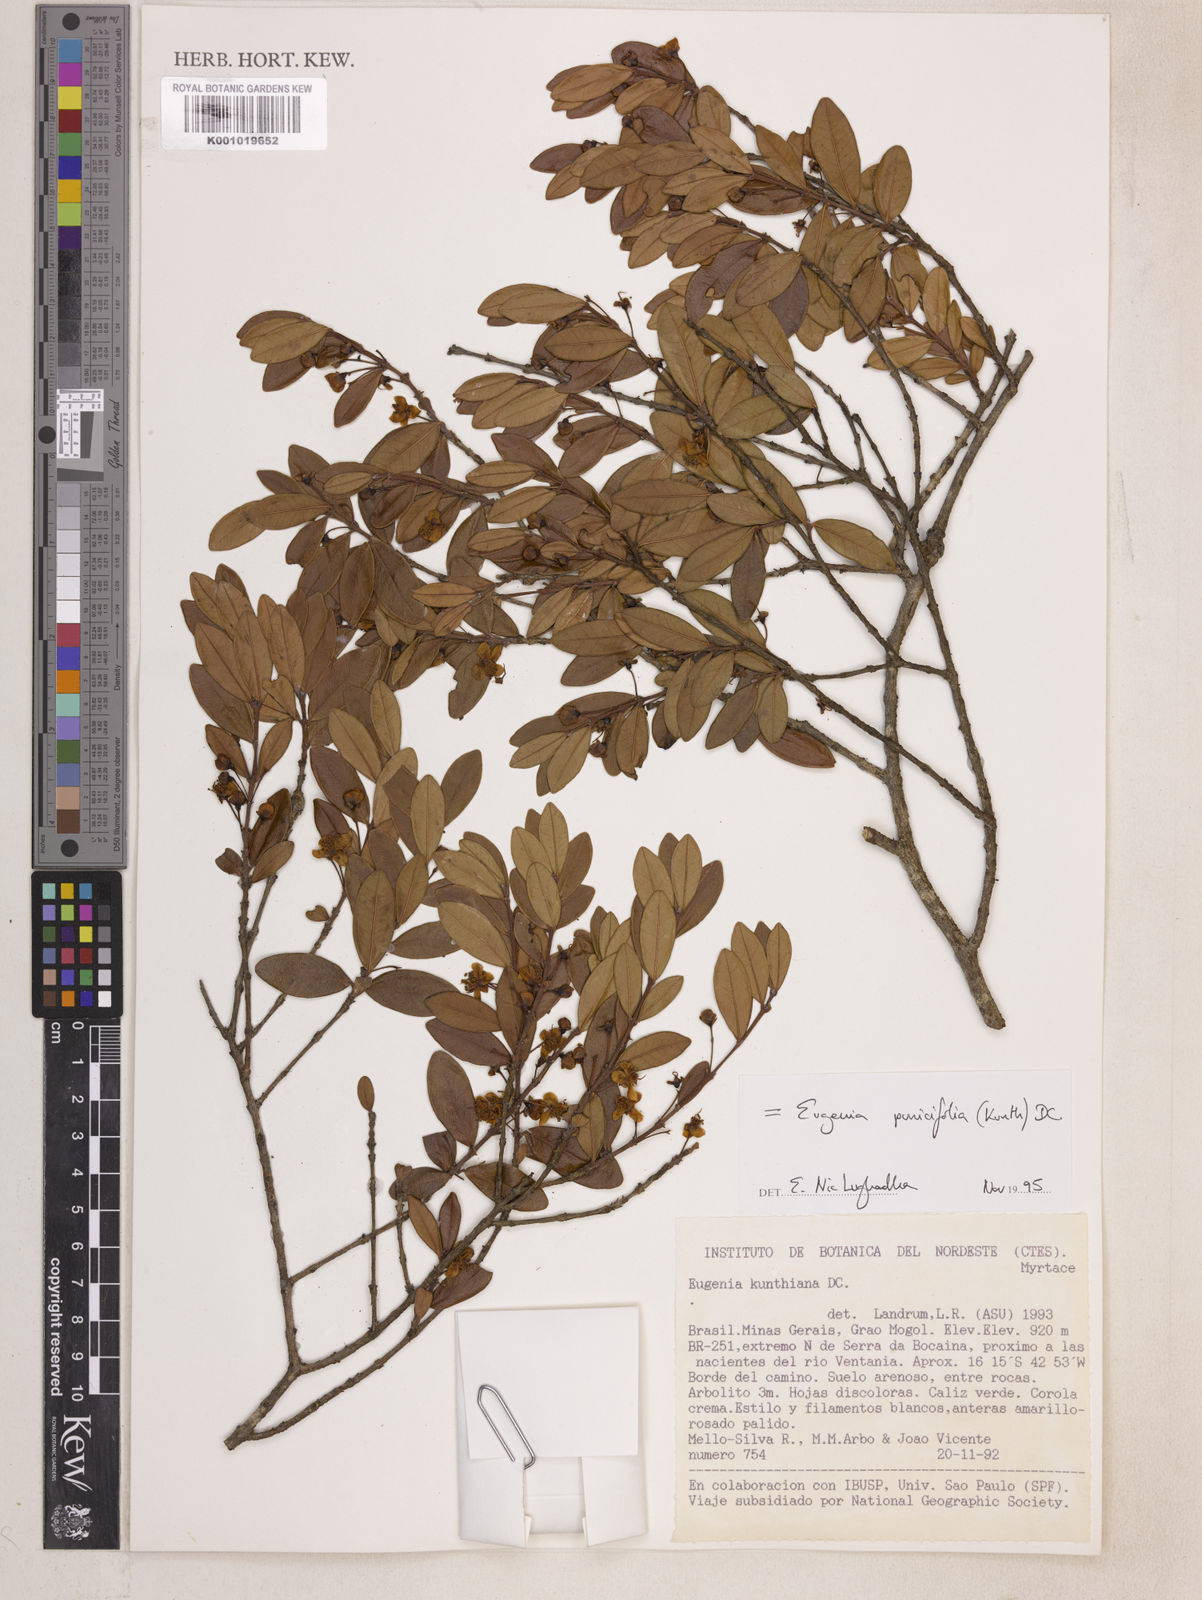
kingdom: Plantae
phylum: Tracheophyta
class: Magnoliopsida
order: Myrtales
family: Myrtaceae
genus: Eugenia
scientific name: Eugenia punicifolia
